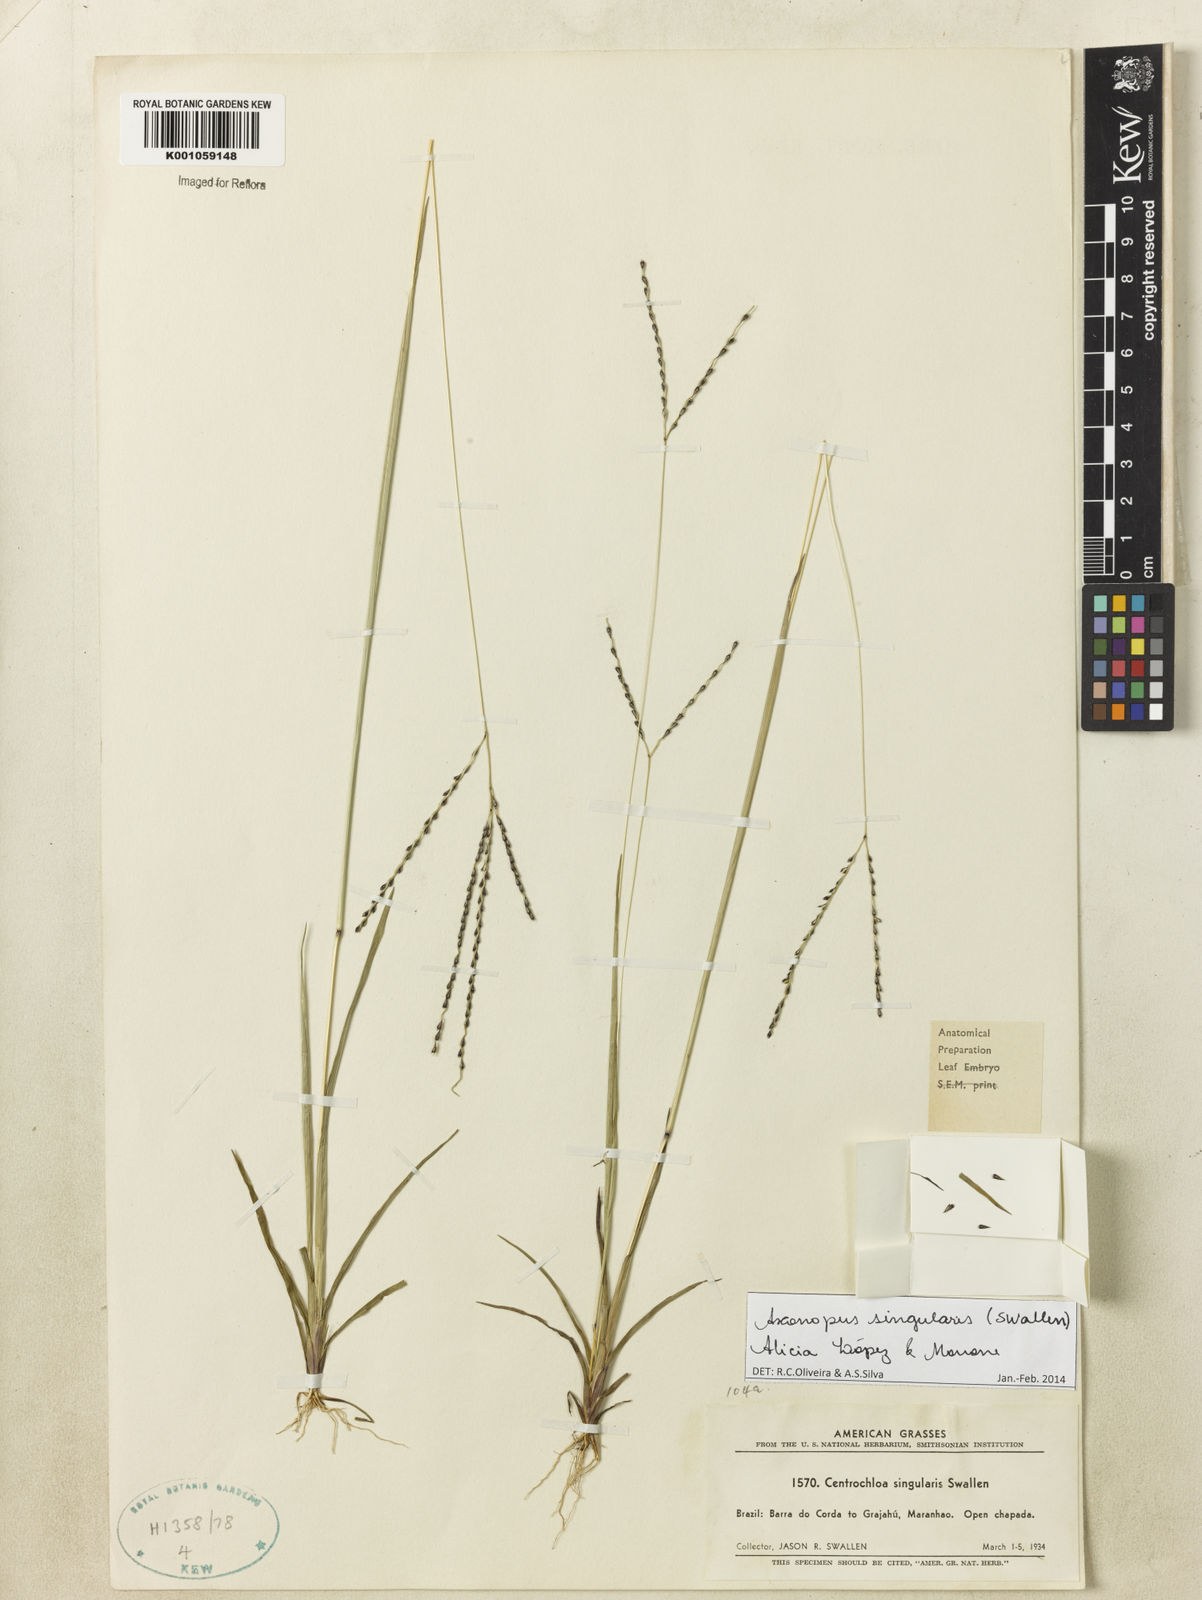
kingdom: Plantae
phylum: Tracheophyta
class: Liliopsida
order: Poales
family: Poaceae
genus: Axonopus
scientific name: Axonopus
